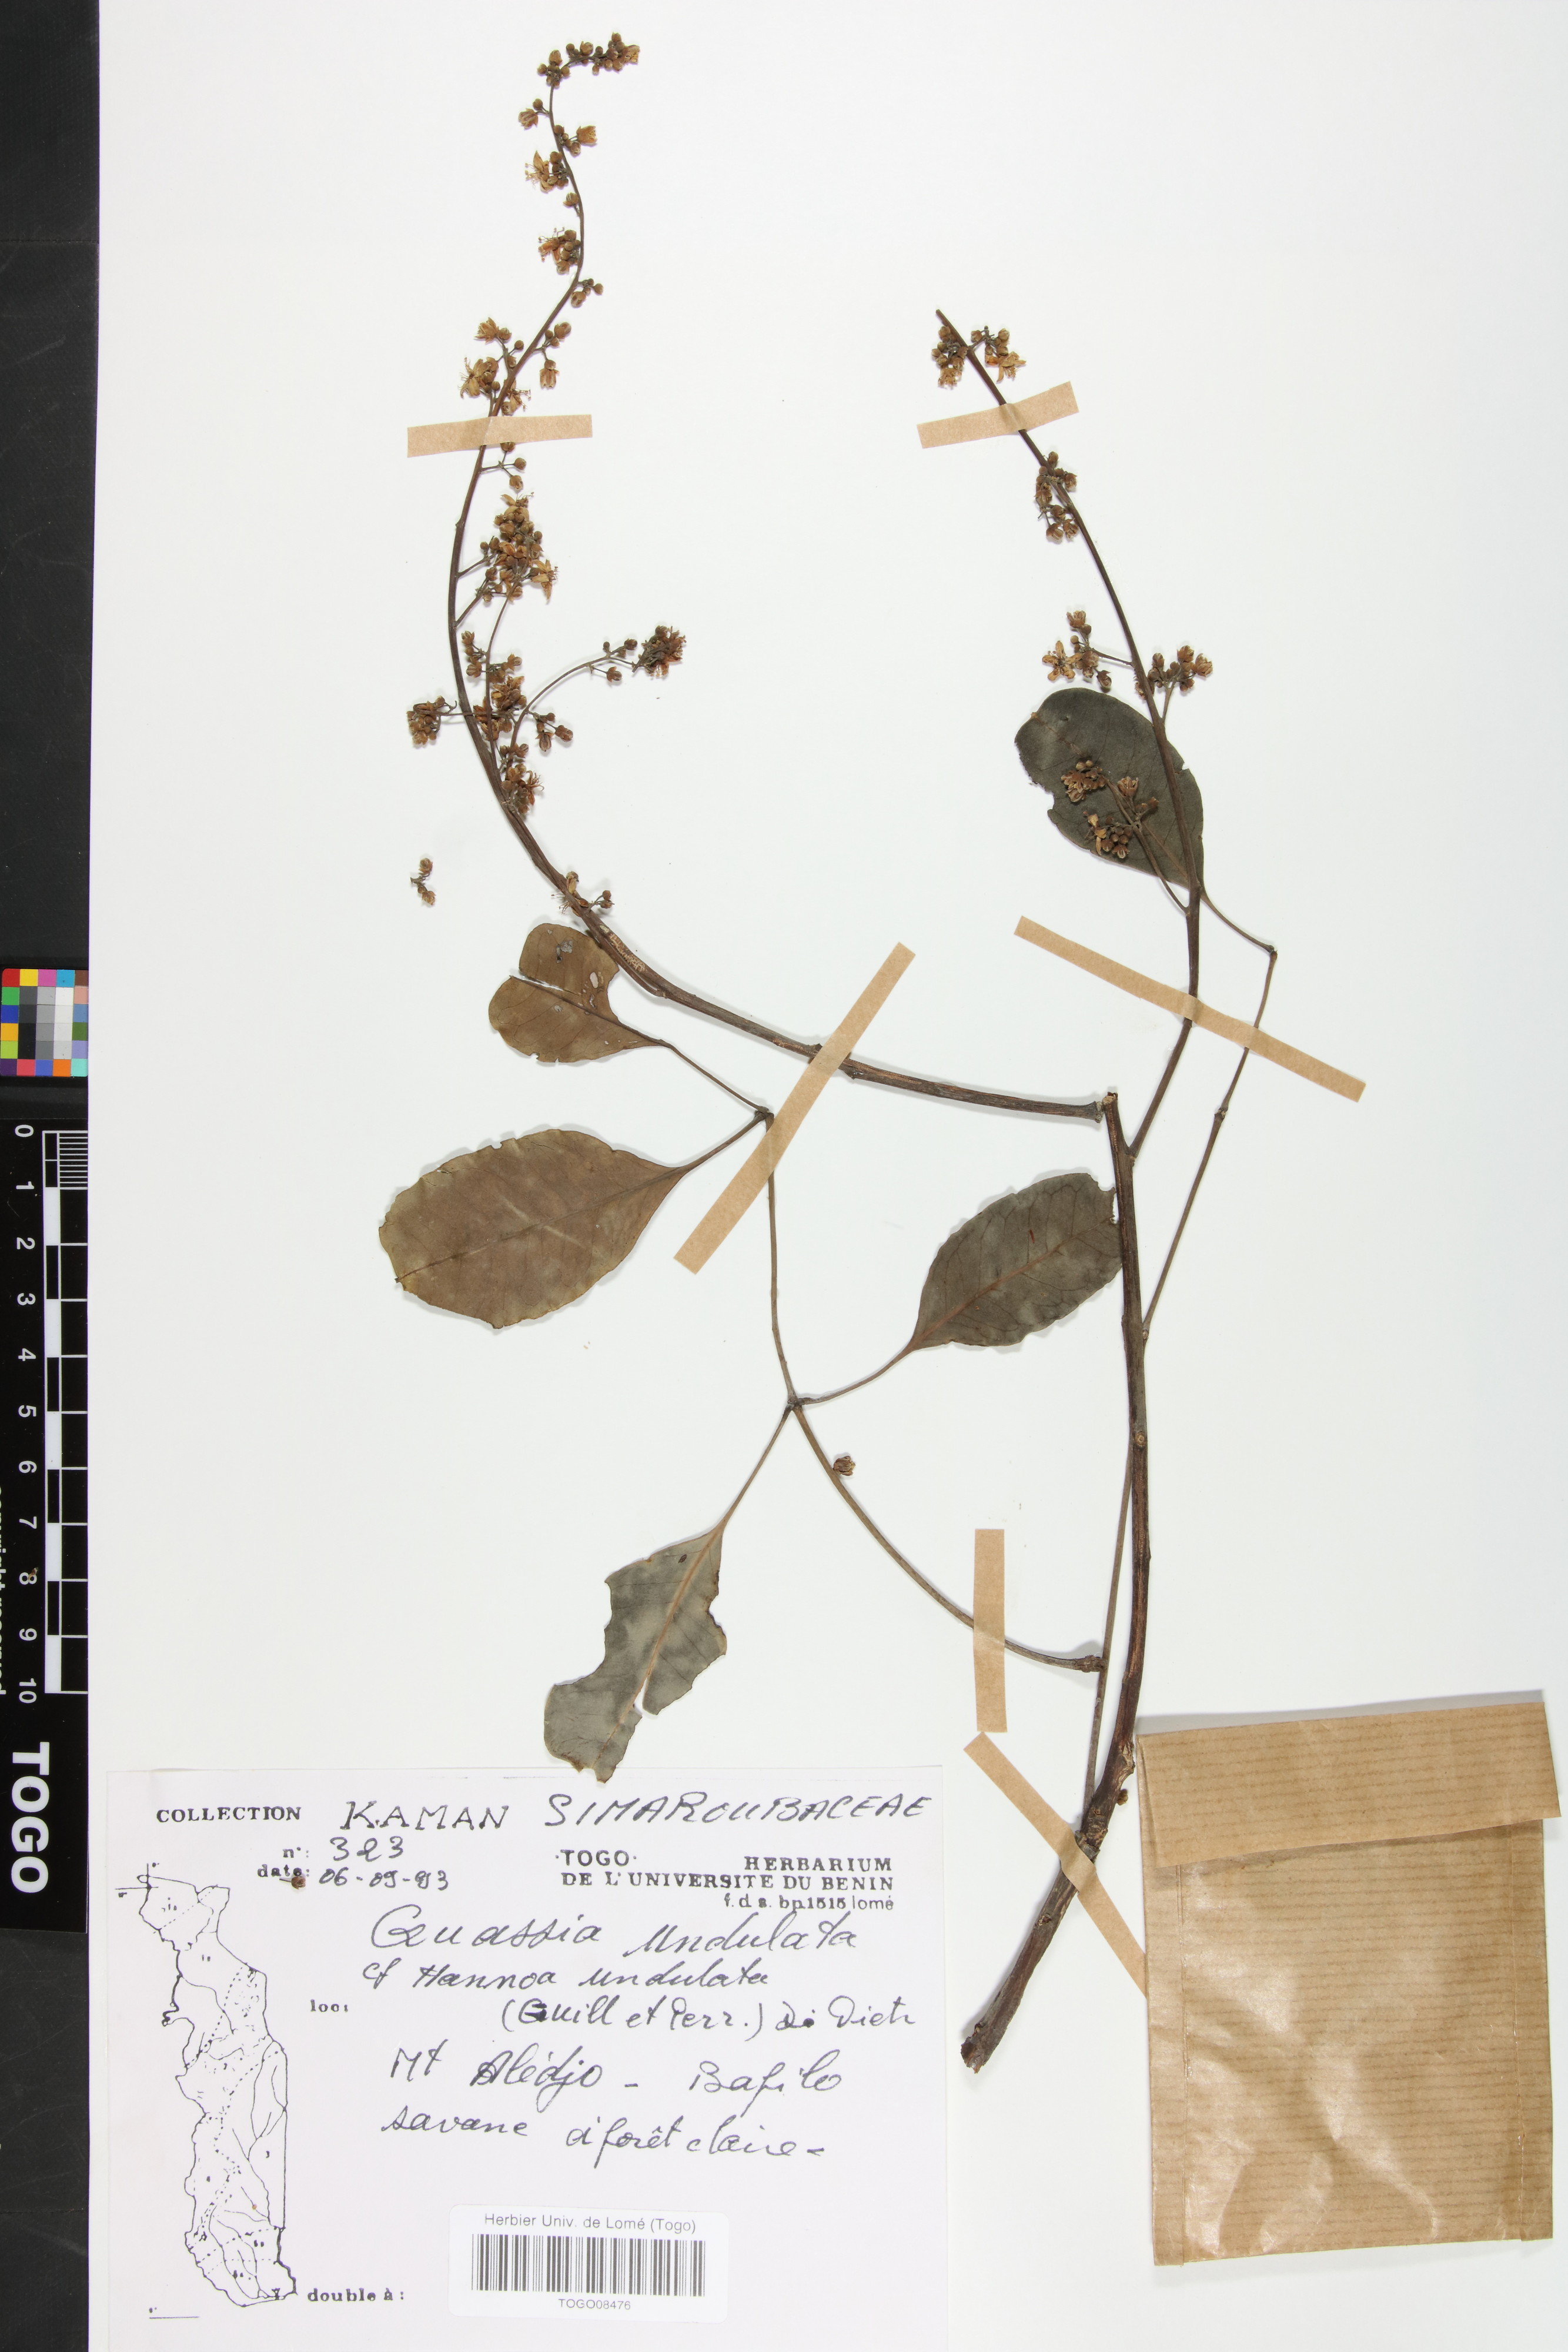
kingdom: Plantae
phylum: Tracheophyta
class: Magnoliopsida
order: Sapindales
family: Simaroubaceae
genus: Odyendyea
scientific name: Odyendyea klaineana
